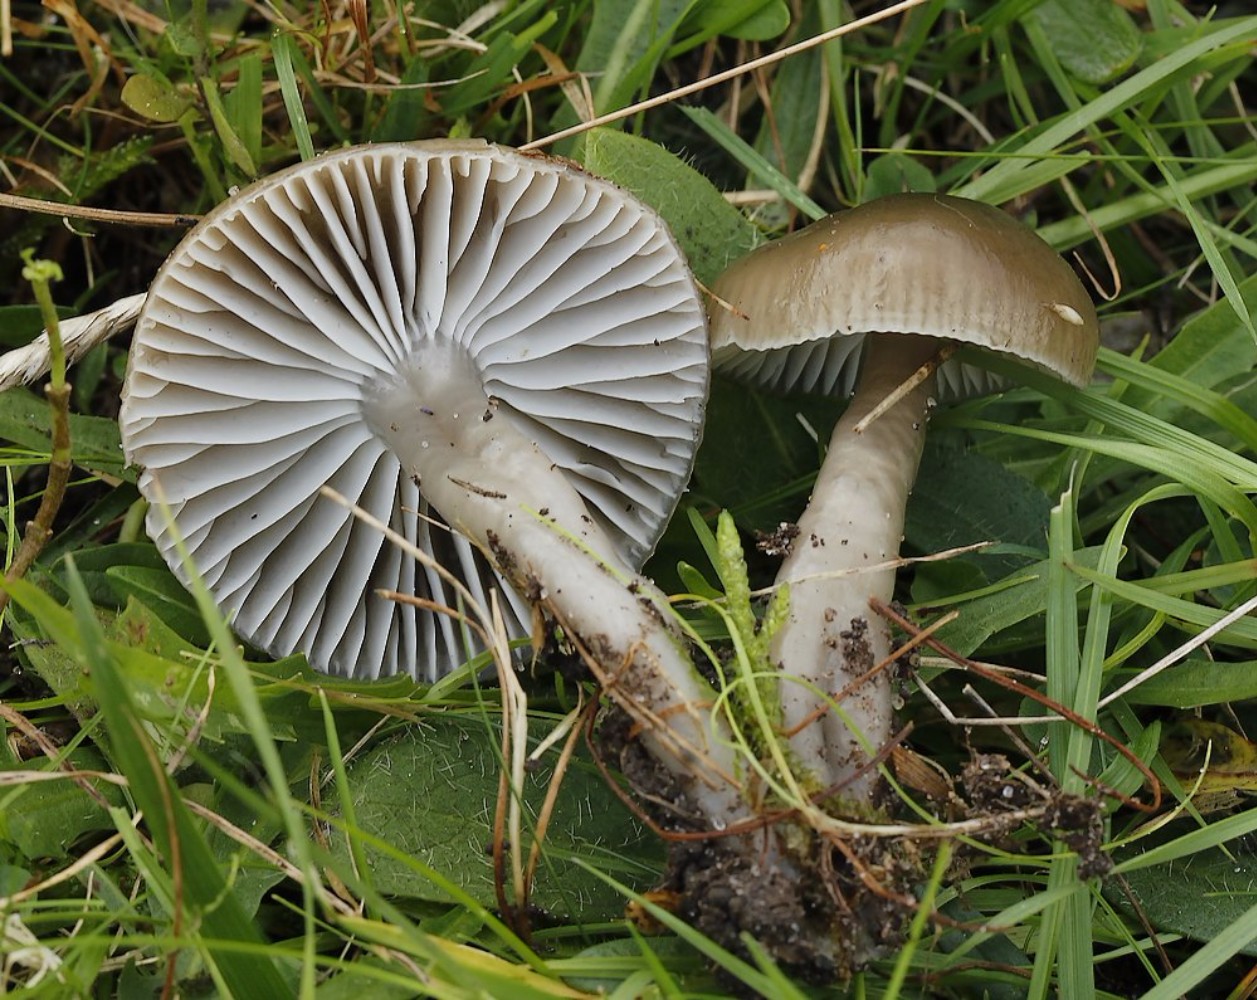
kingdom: Fungi
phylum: Basidiomycota
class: Agaricomycetes
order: Agaricales
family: Hygrophoraceae
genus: Gliophorus
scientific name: Gliophorus irrigatus
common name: slimet vokshat
